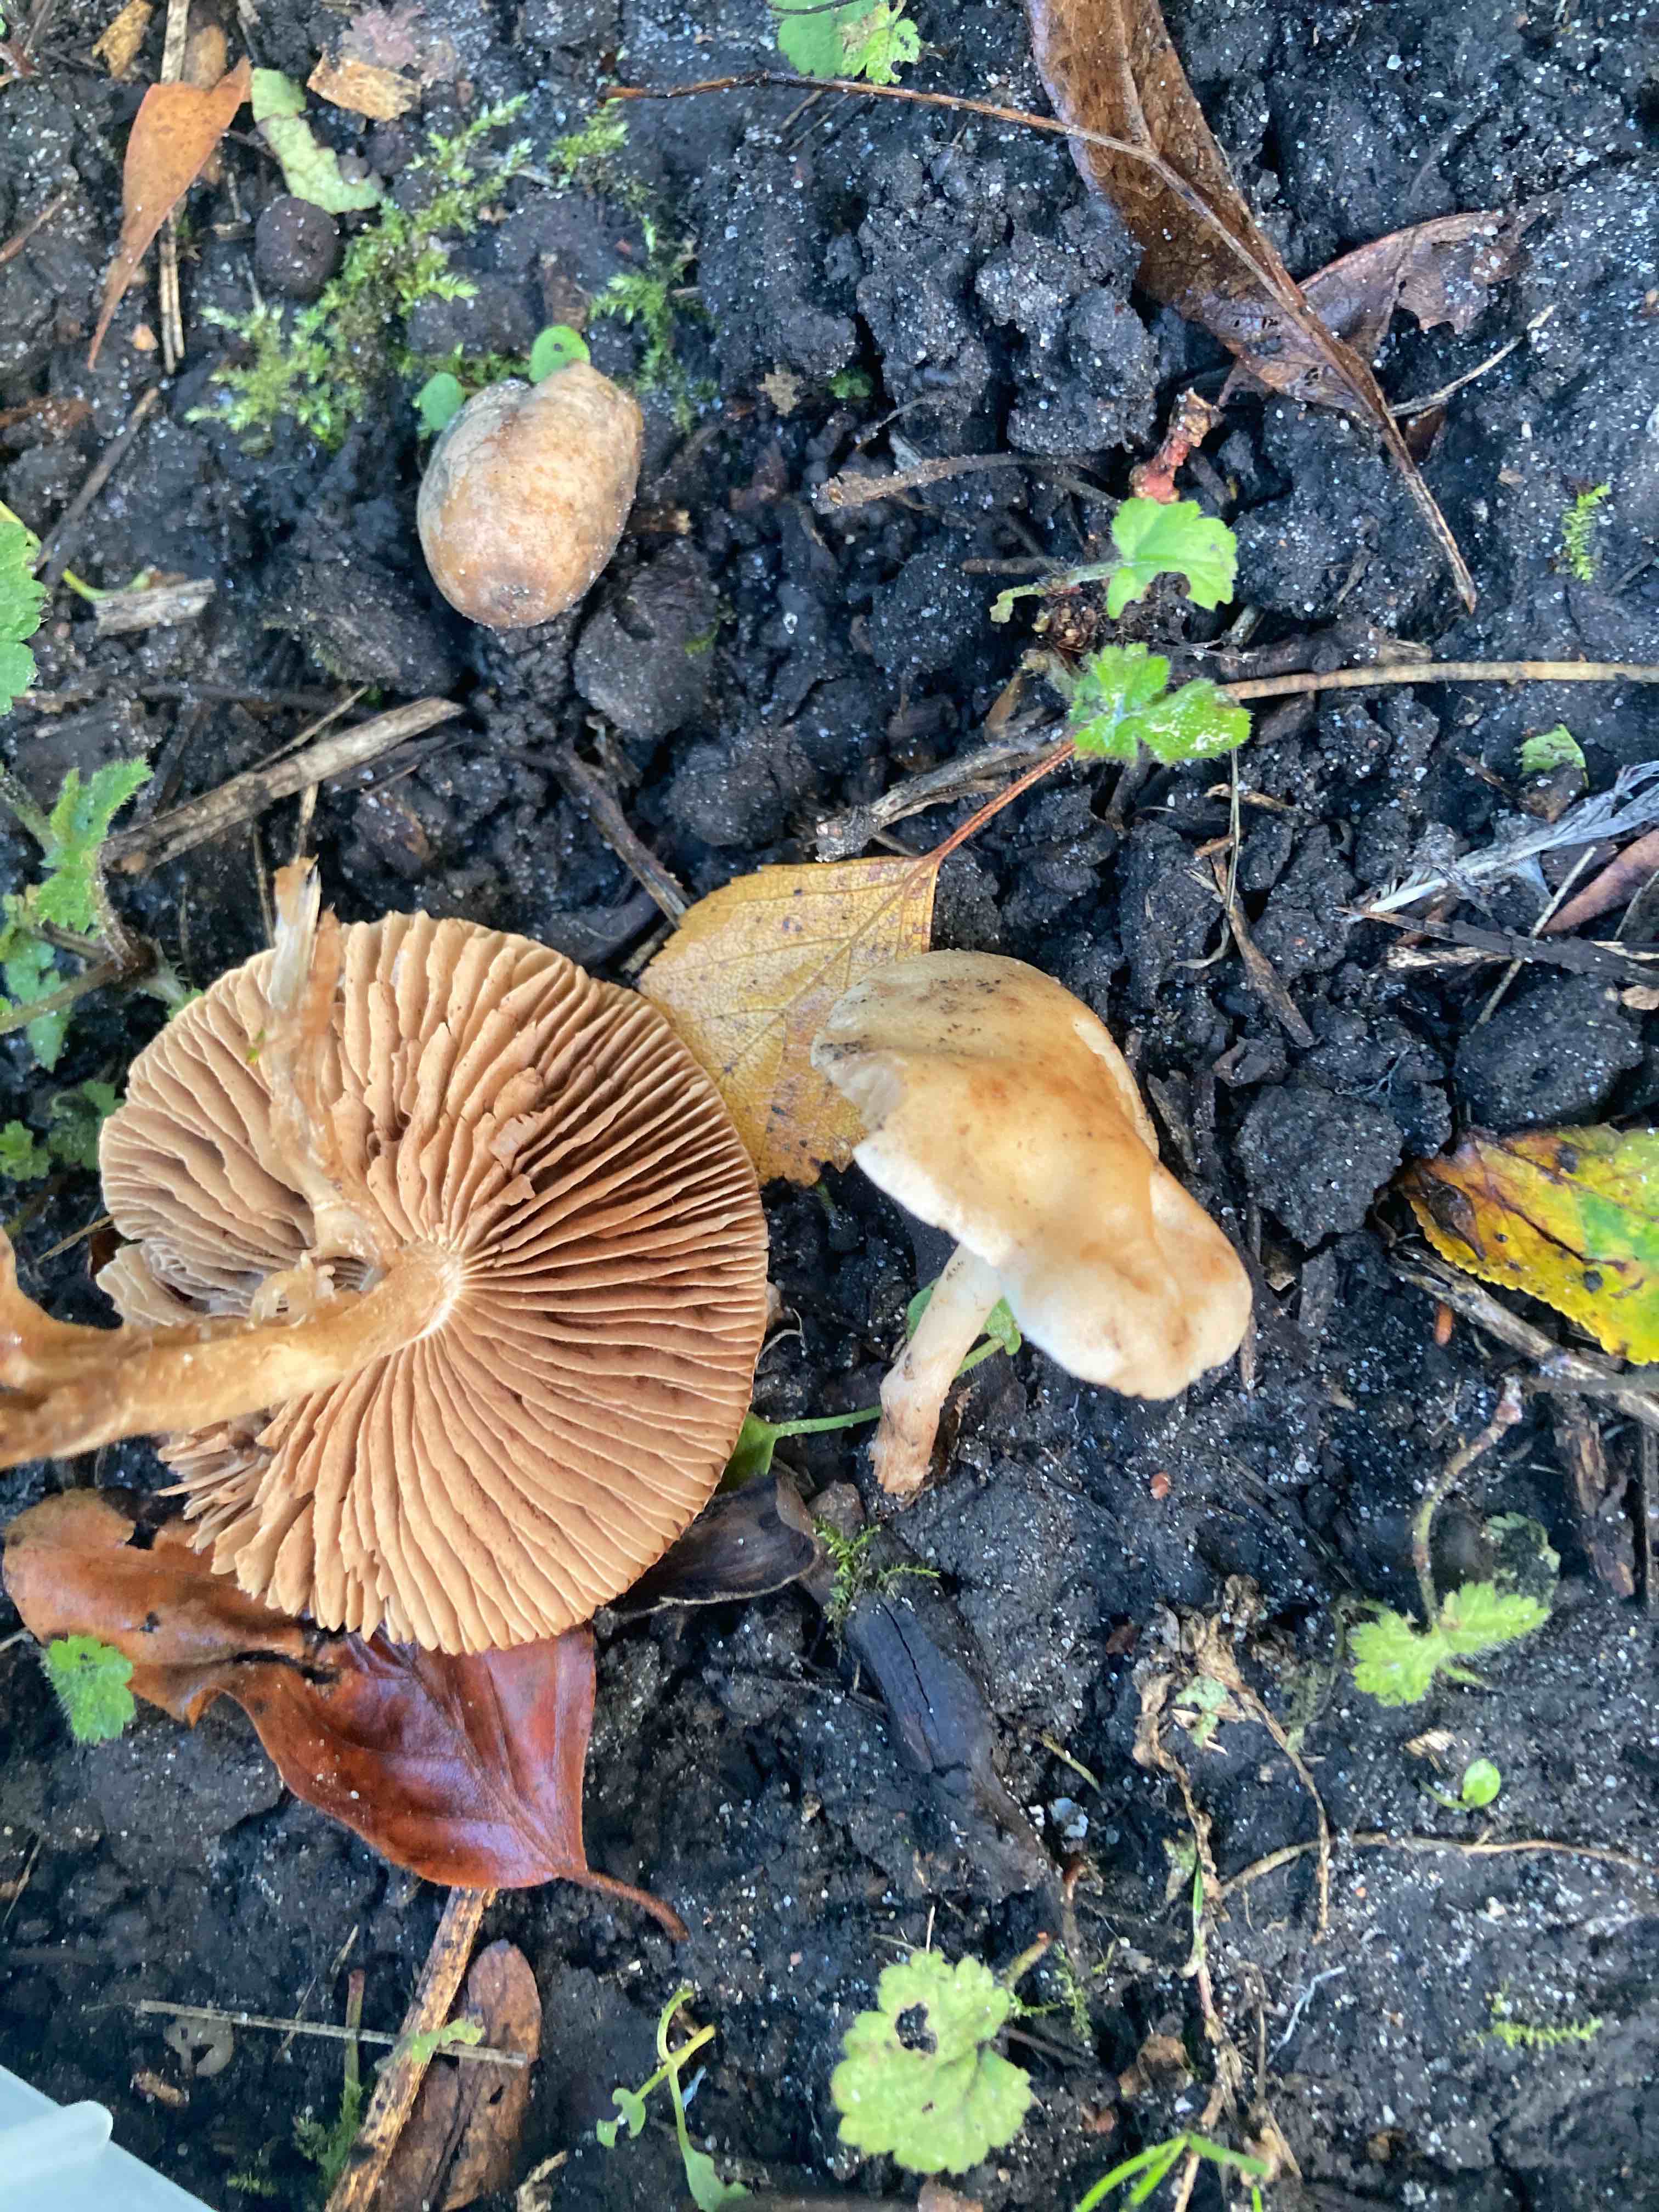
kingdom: Fungi
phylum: Basidiomycota
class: Agaricomycetes
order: Agaricales
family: Hymenogastraceae
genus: Hebeloma
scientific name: Hebeloma sacchariolens
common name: sødtduftende tåreblad
